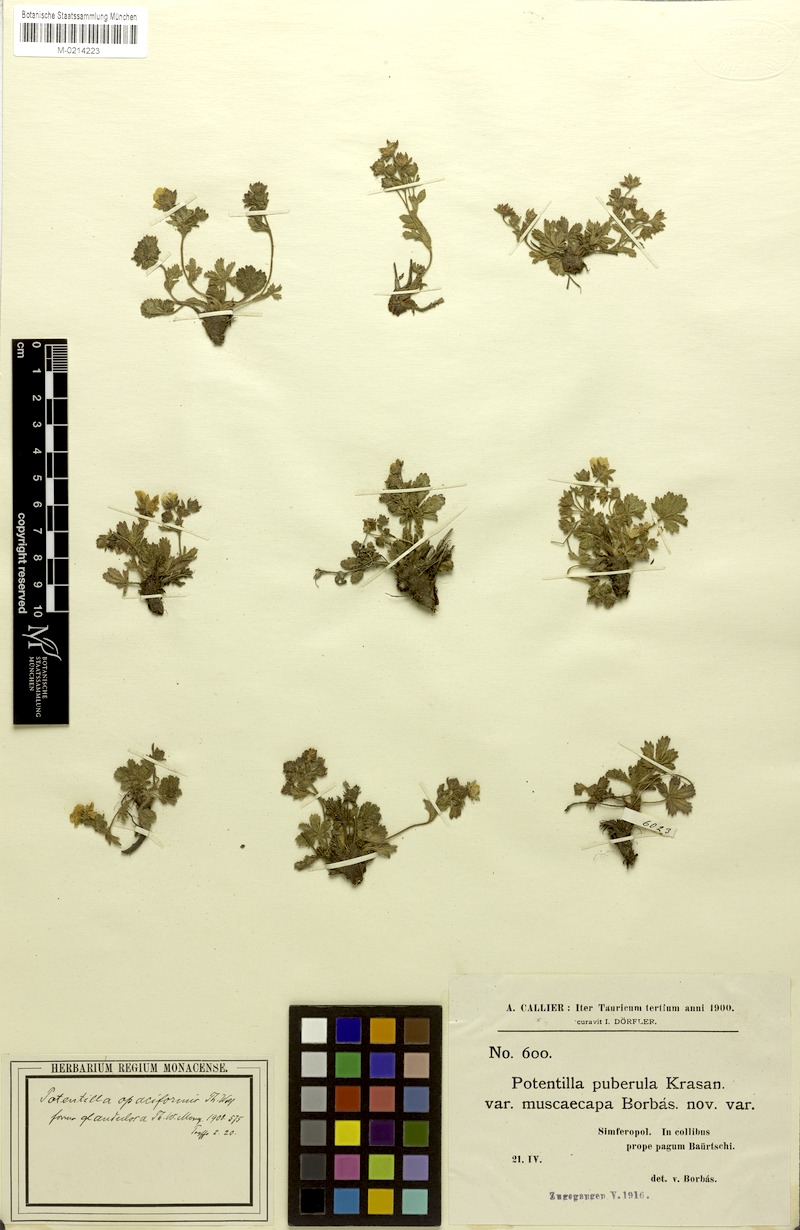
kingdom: Plantae
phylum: Tracheophyta
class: Magnoliopsida
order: Rosales
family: Rosaceae
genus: Potentilla
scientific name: Potentilla humifusa
